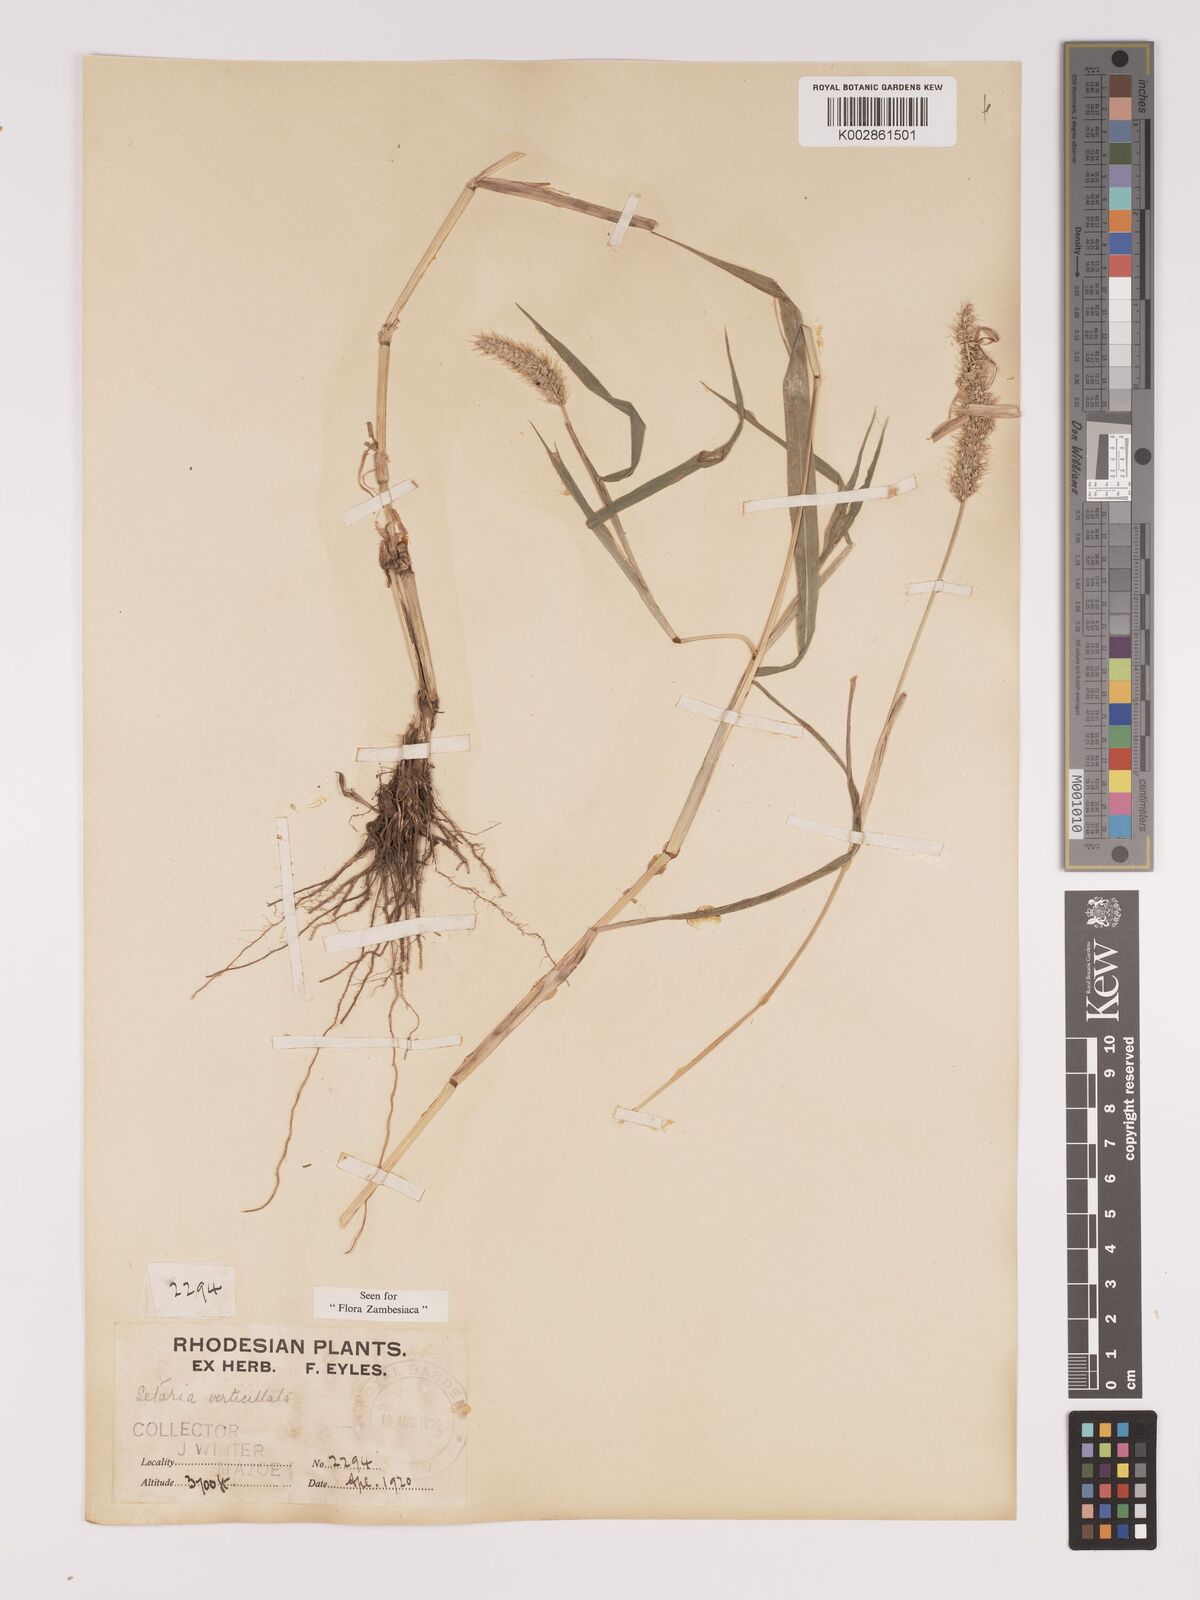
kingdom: Plantae
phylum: Tracheophyta
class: Liliopsida
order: Poales
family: Poaceae
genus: Setaria
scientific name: Setaria verticillata
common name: Hooked bristlegrass
